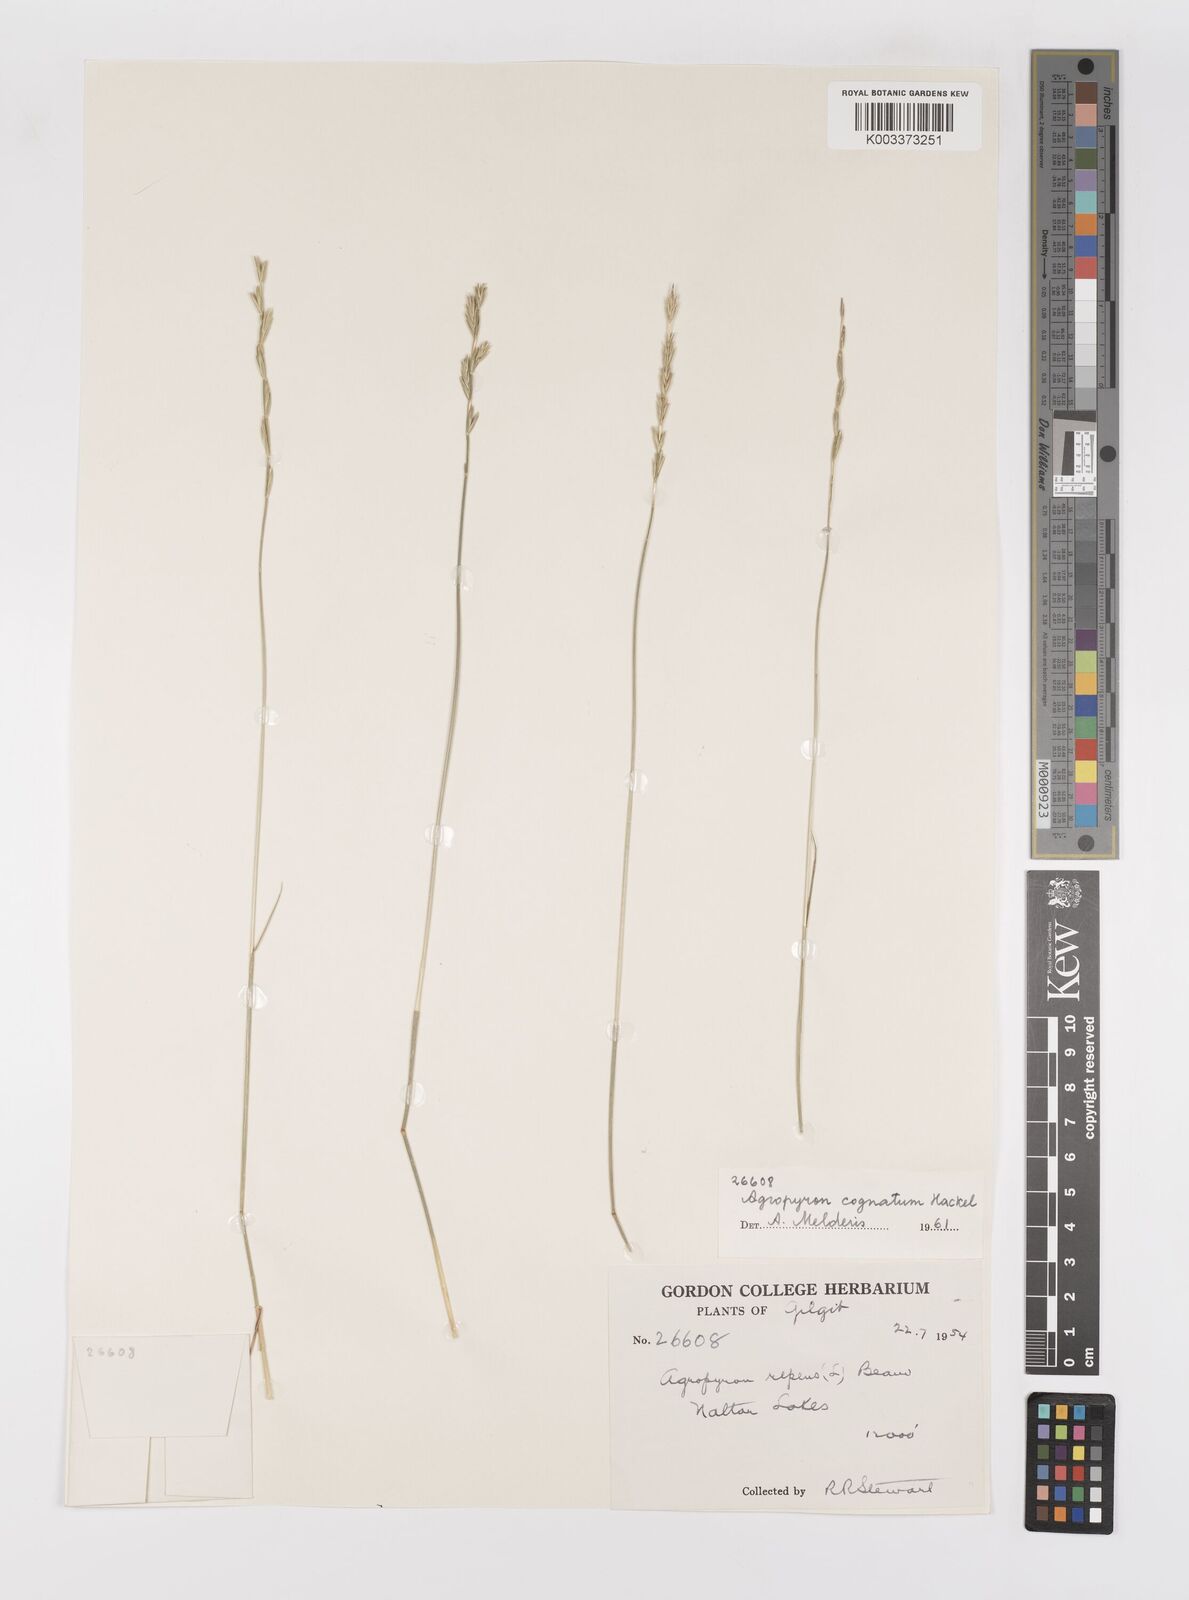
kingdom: Plantae
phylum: Tracheophyta
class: Liliopsida
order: Poales
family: Poaceae
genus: Pseudoroegneria
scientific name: Pseudoroegneria cognata
